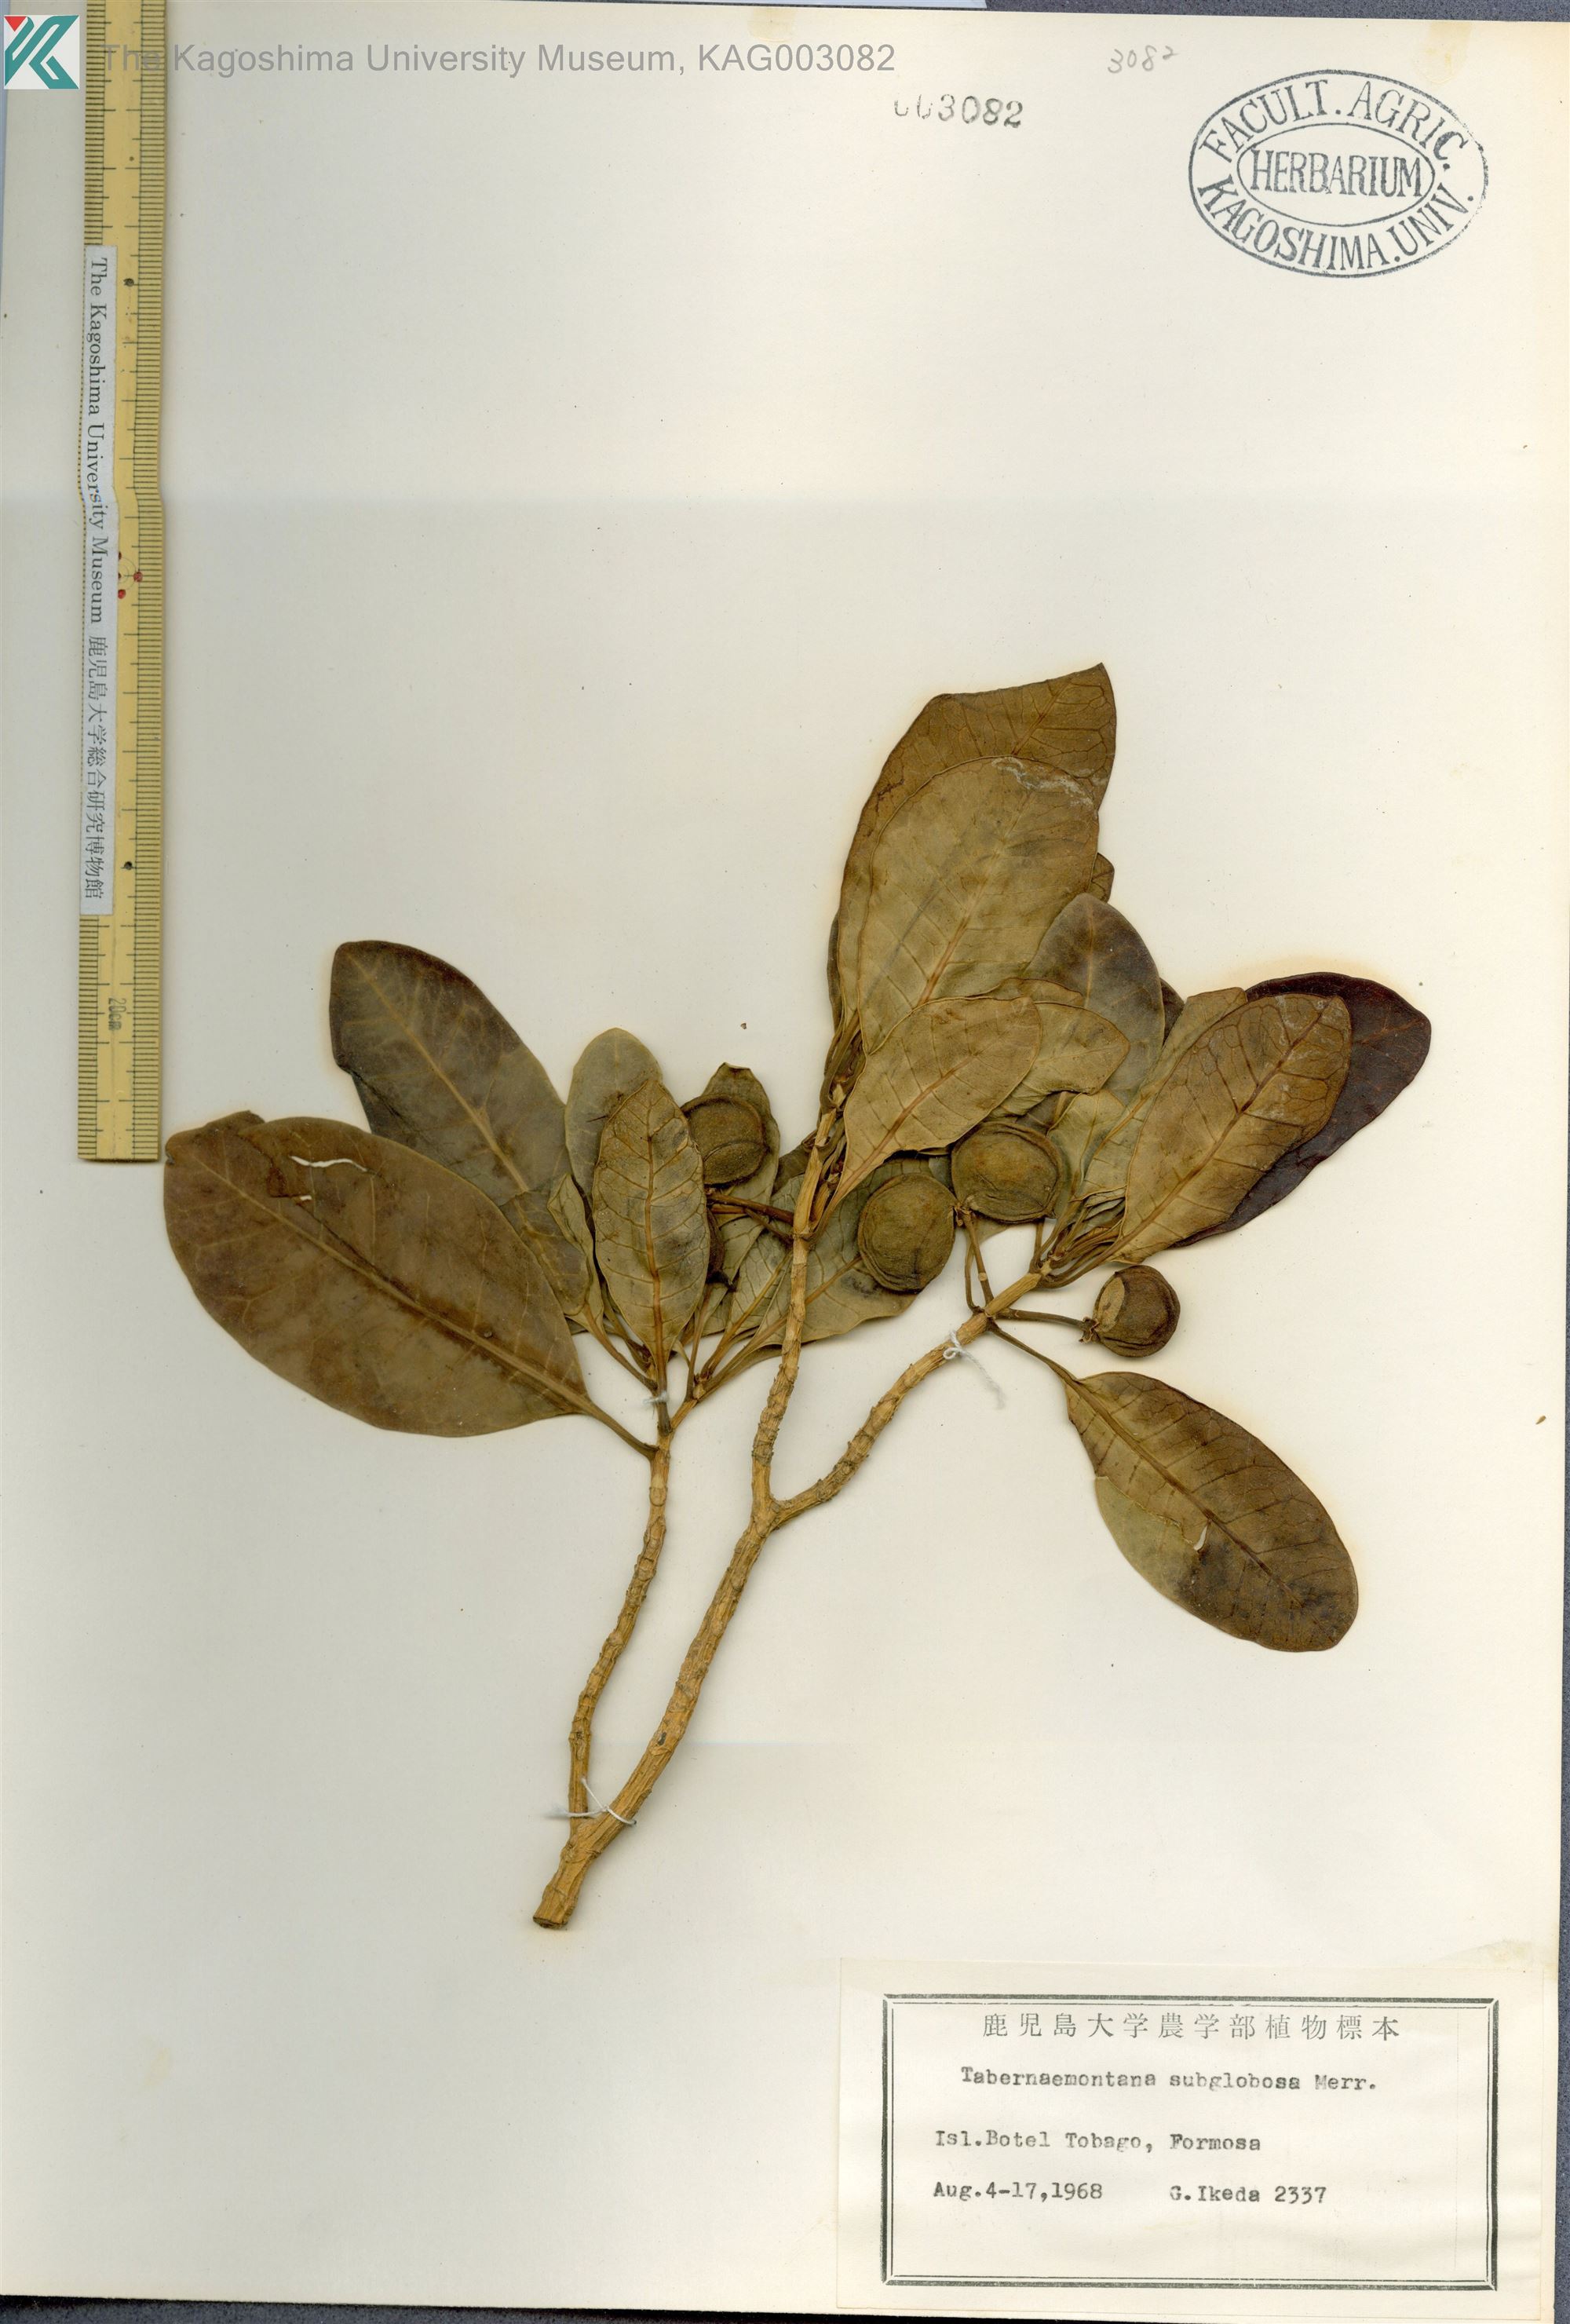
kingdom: Plantae
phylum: Tracheophyta
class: Magnoliopsida
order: Gentianales
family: Apocynaceae
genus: Tabernaemontana
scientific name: Tabernaemontana pandacaqui
